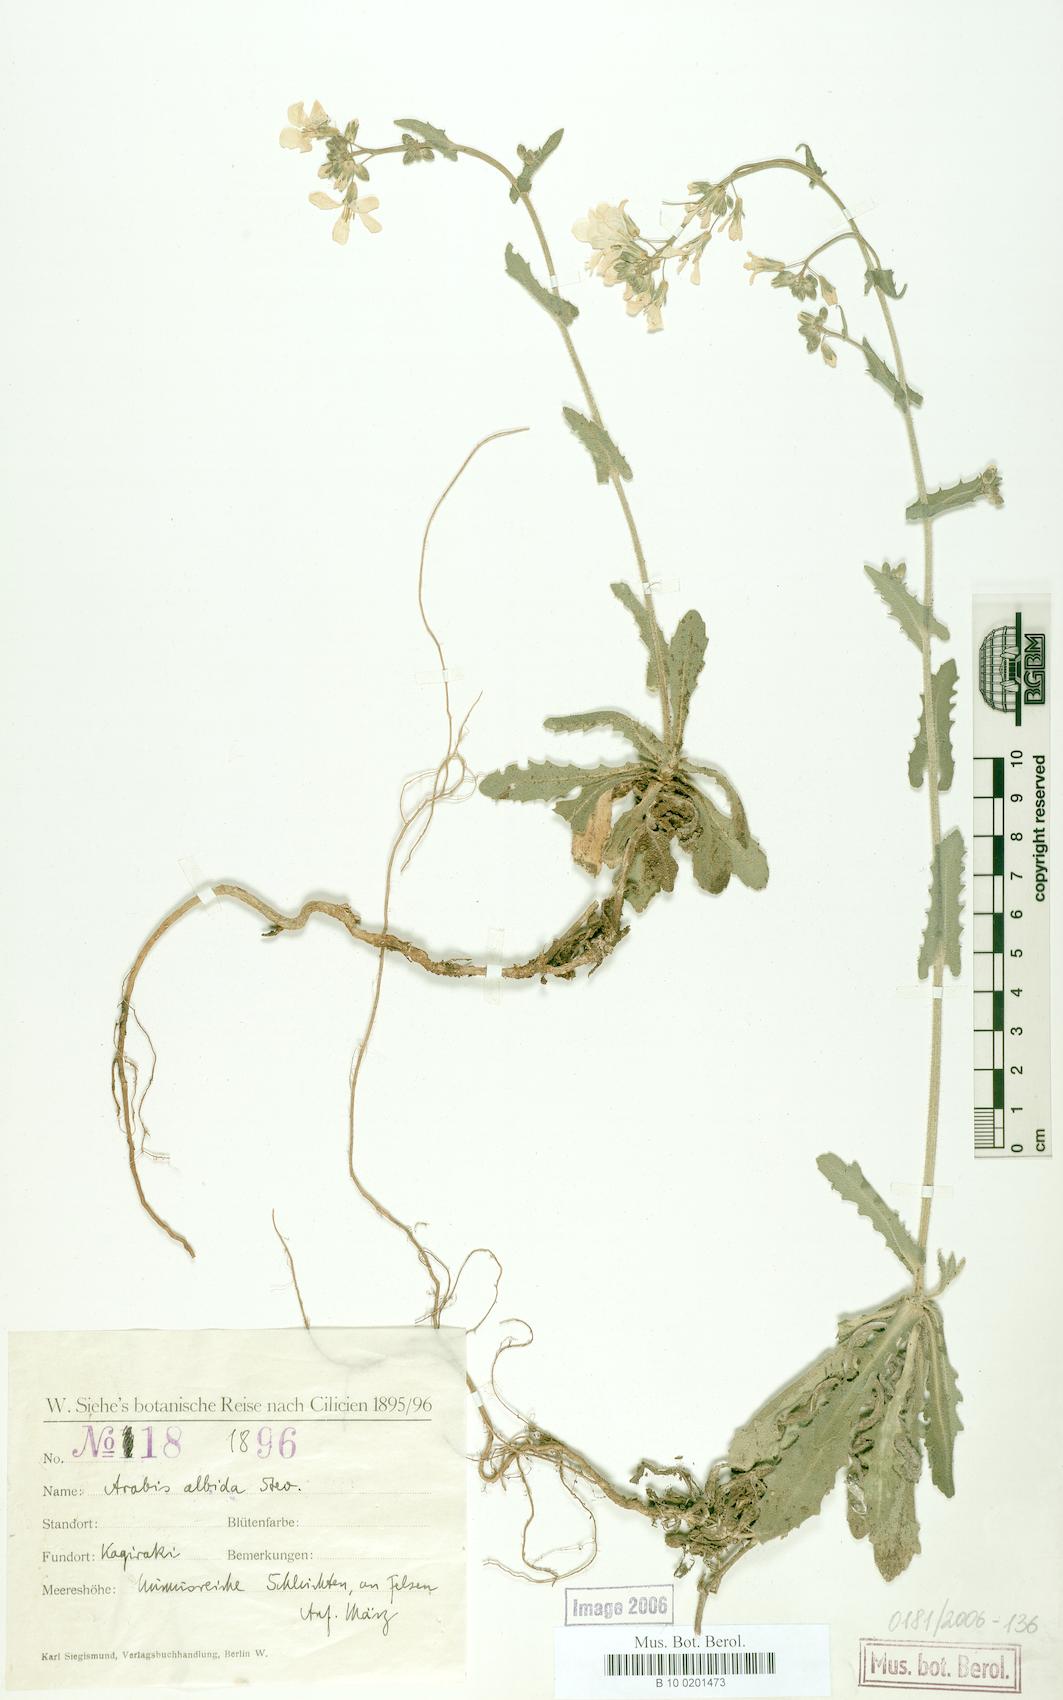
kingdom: Plantae
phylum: Tracheophyta
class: Magnoliopsida
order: Brassicales
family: Brassicaceae
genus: Arabis
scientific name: Arabis alpina
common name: Alpine rock-cress
